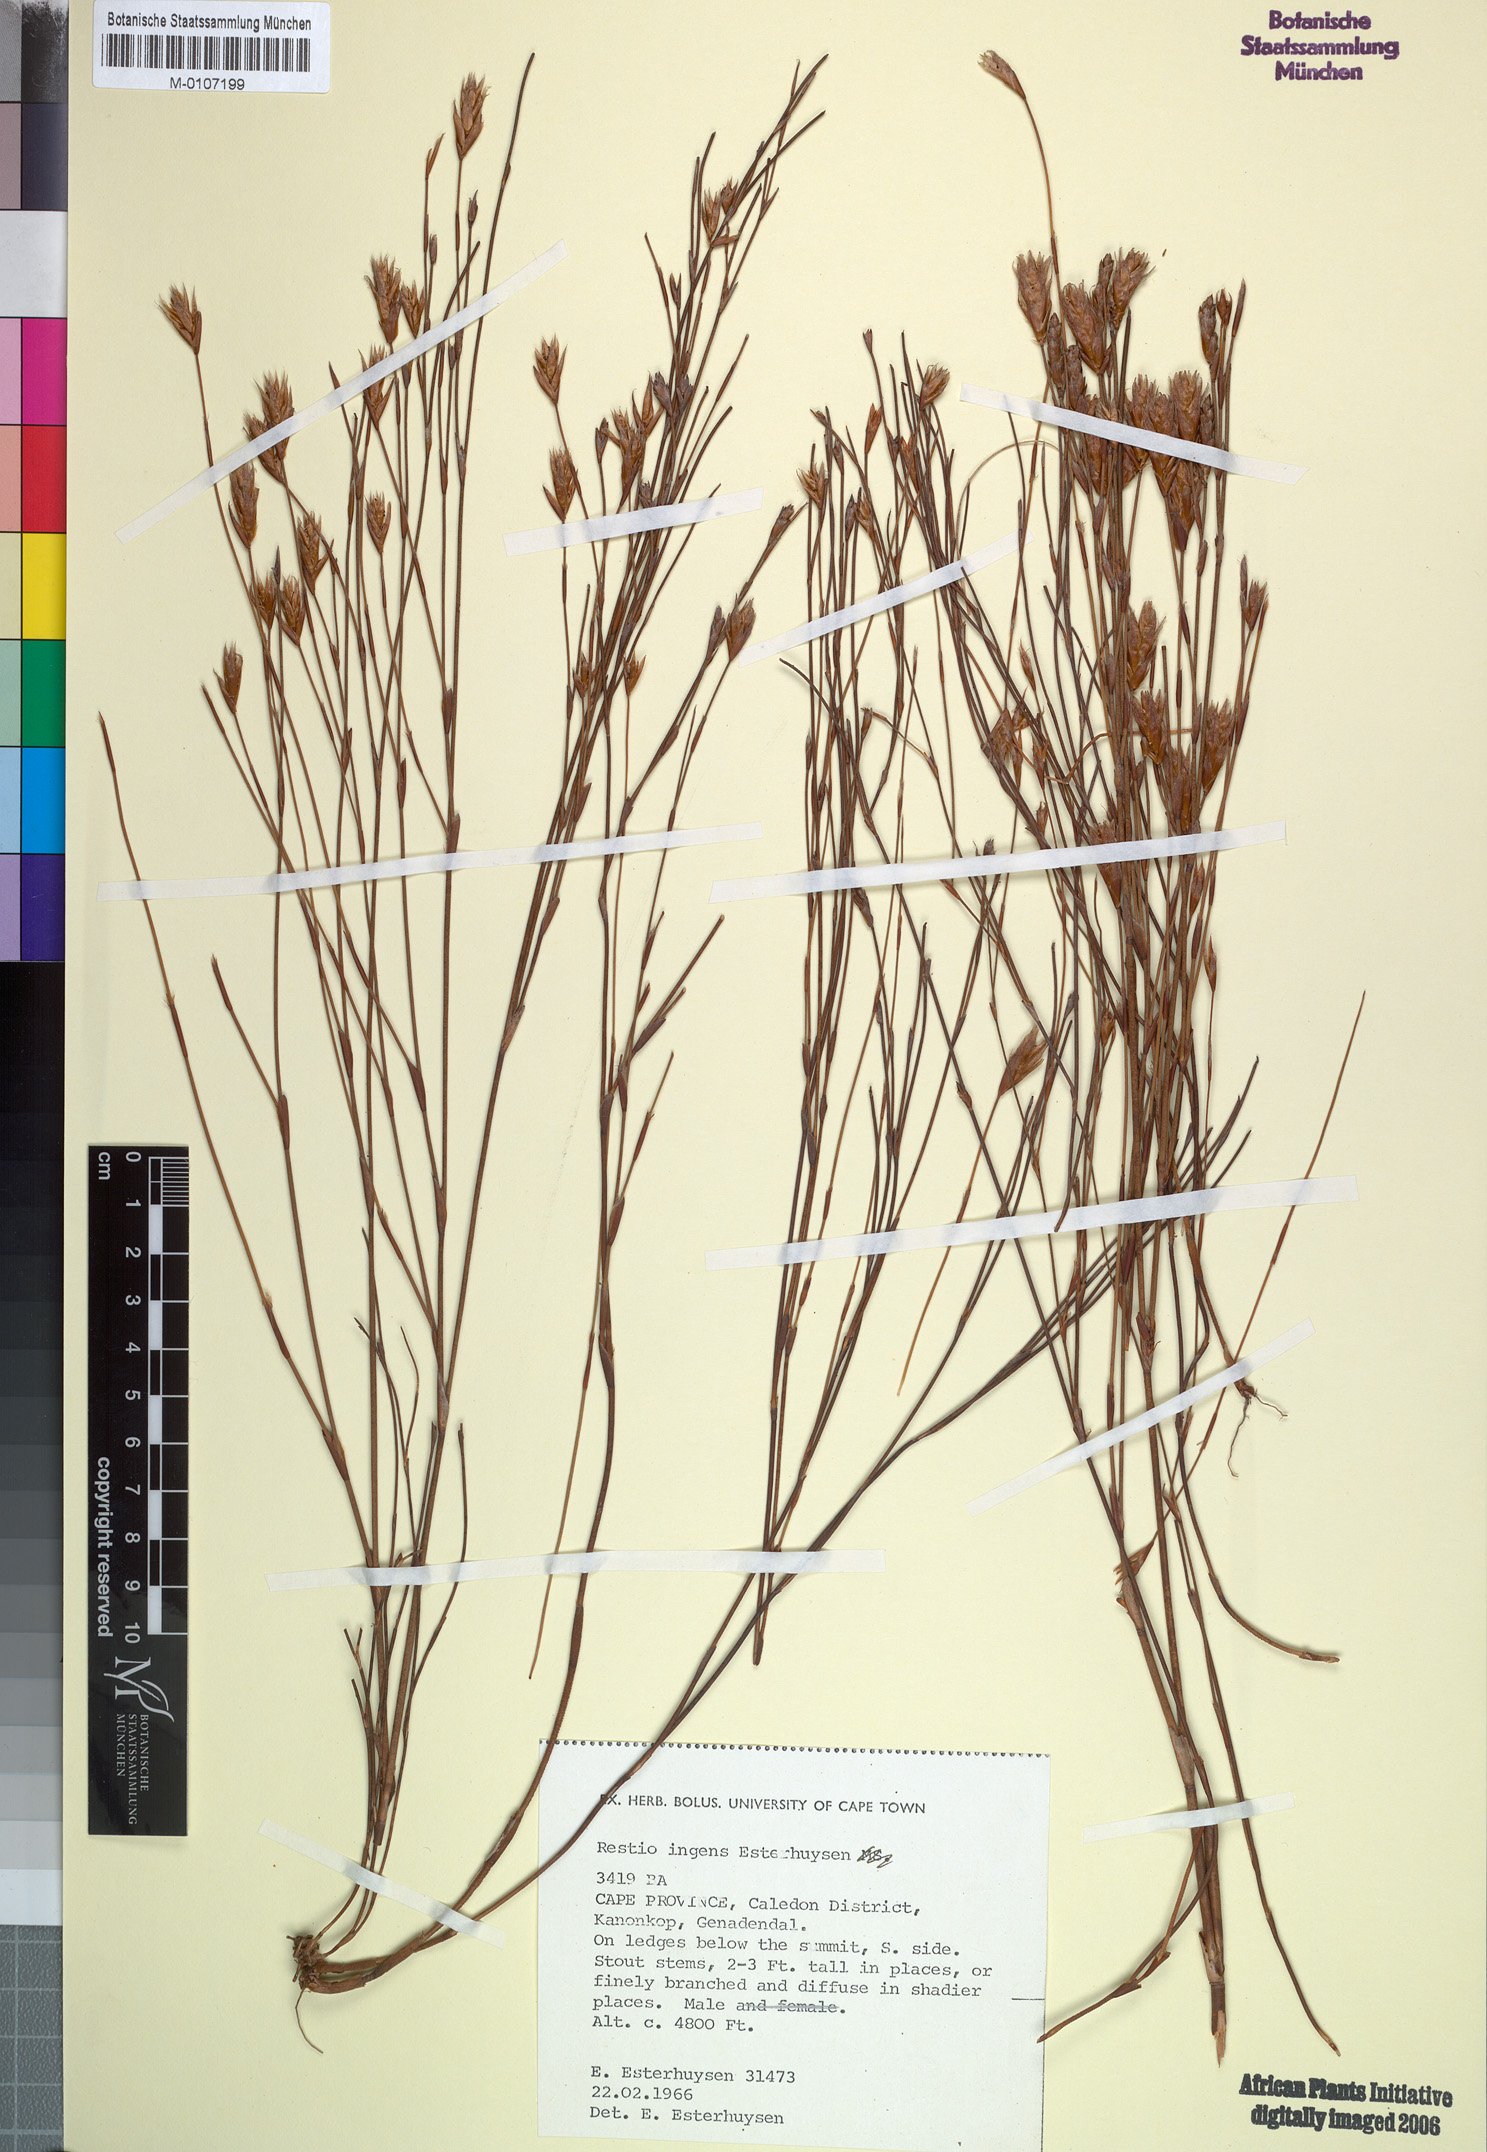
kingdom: Plantae
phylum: Tracheophyta
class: Liliopsida
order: Poales
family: Restionaceae
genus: Restio
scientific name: Restio ingens
